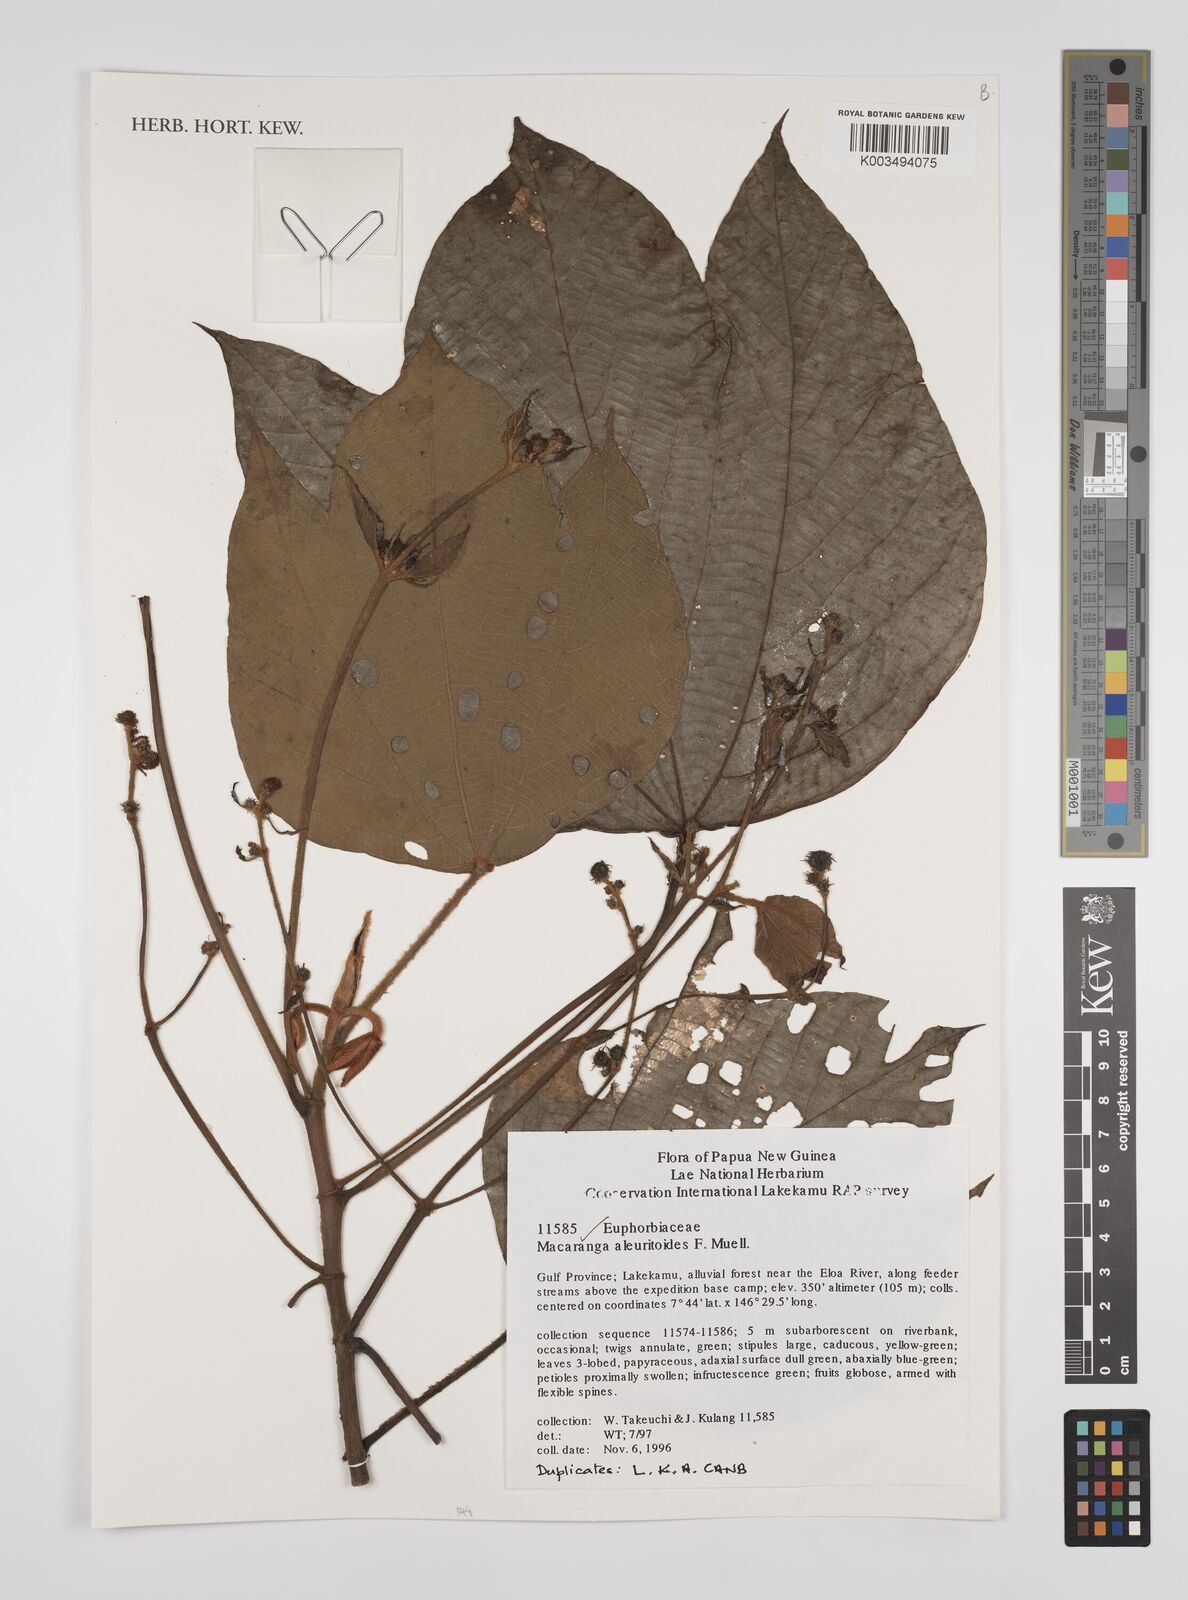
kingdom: Plantae
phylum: Tracheophyta
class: Magnoliopsida
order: Malpighiales
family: Euphorbiaceae
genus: Macaranga
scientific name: Macaranga aleuritoides
